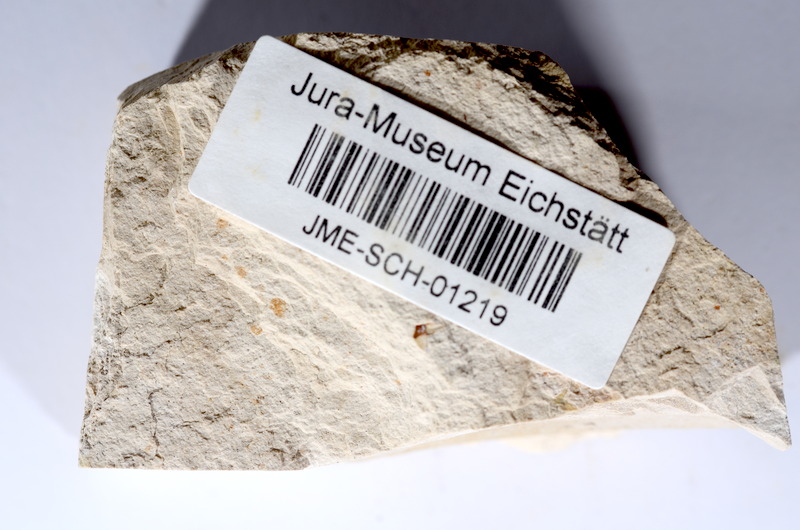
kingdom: Animalia
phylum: Chordata
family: Ascalaboidae
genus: Tharsis
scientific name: Tharsis dubius
